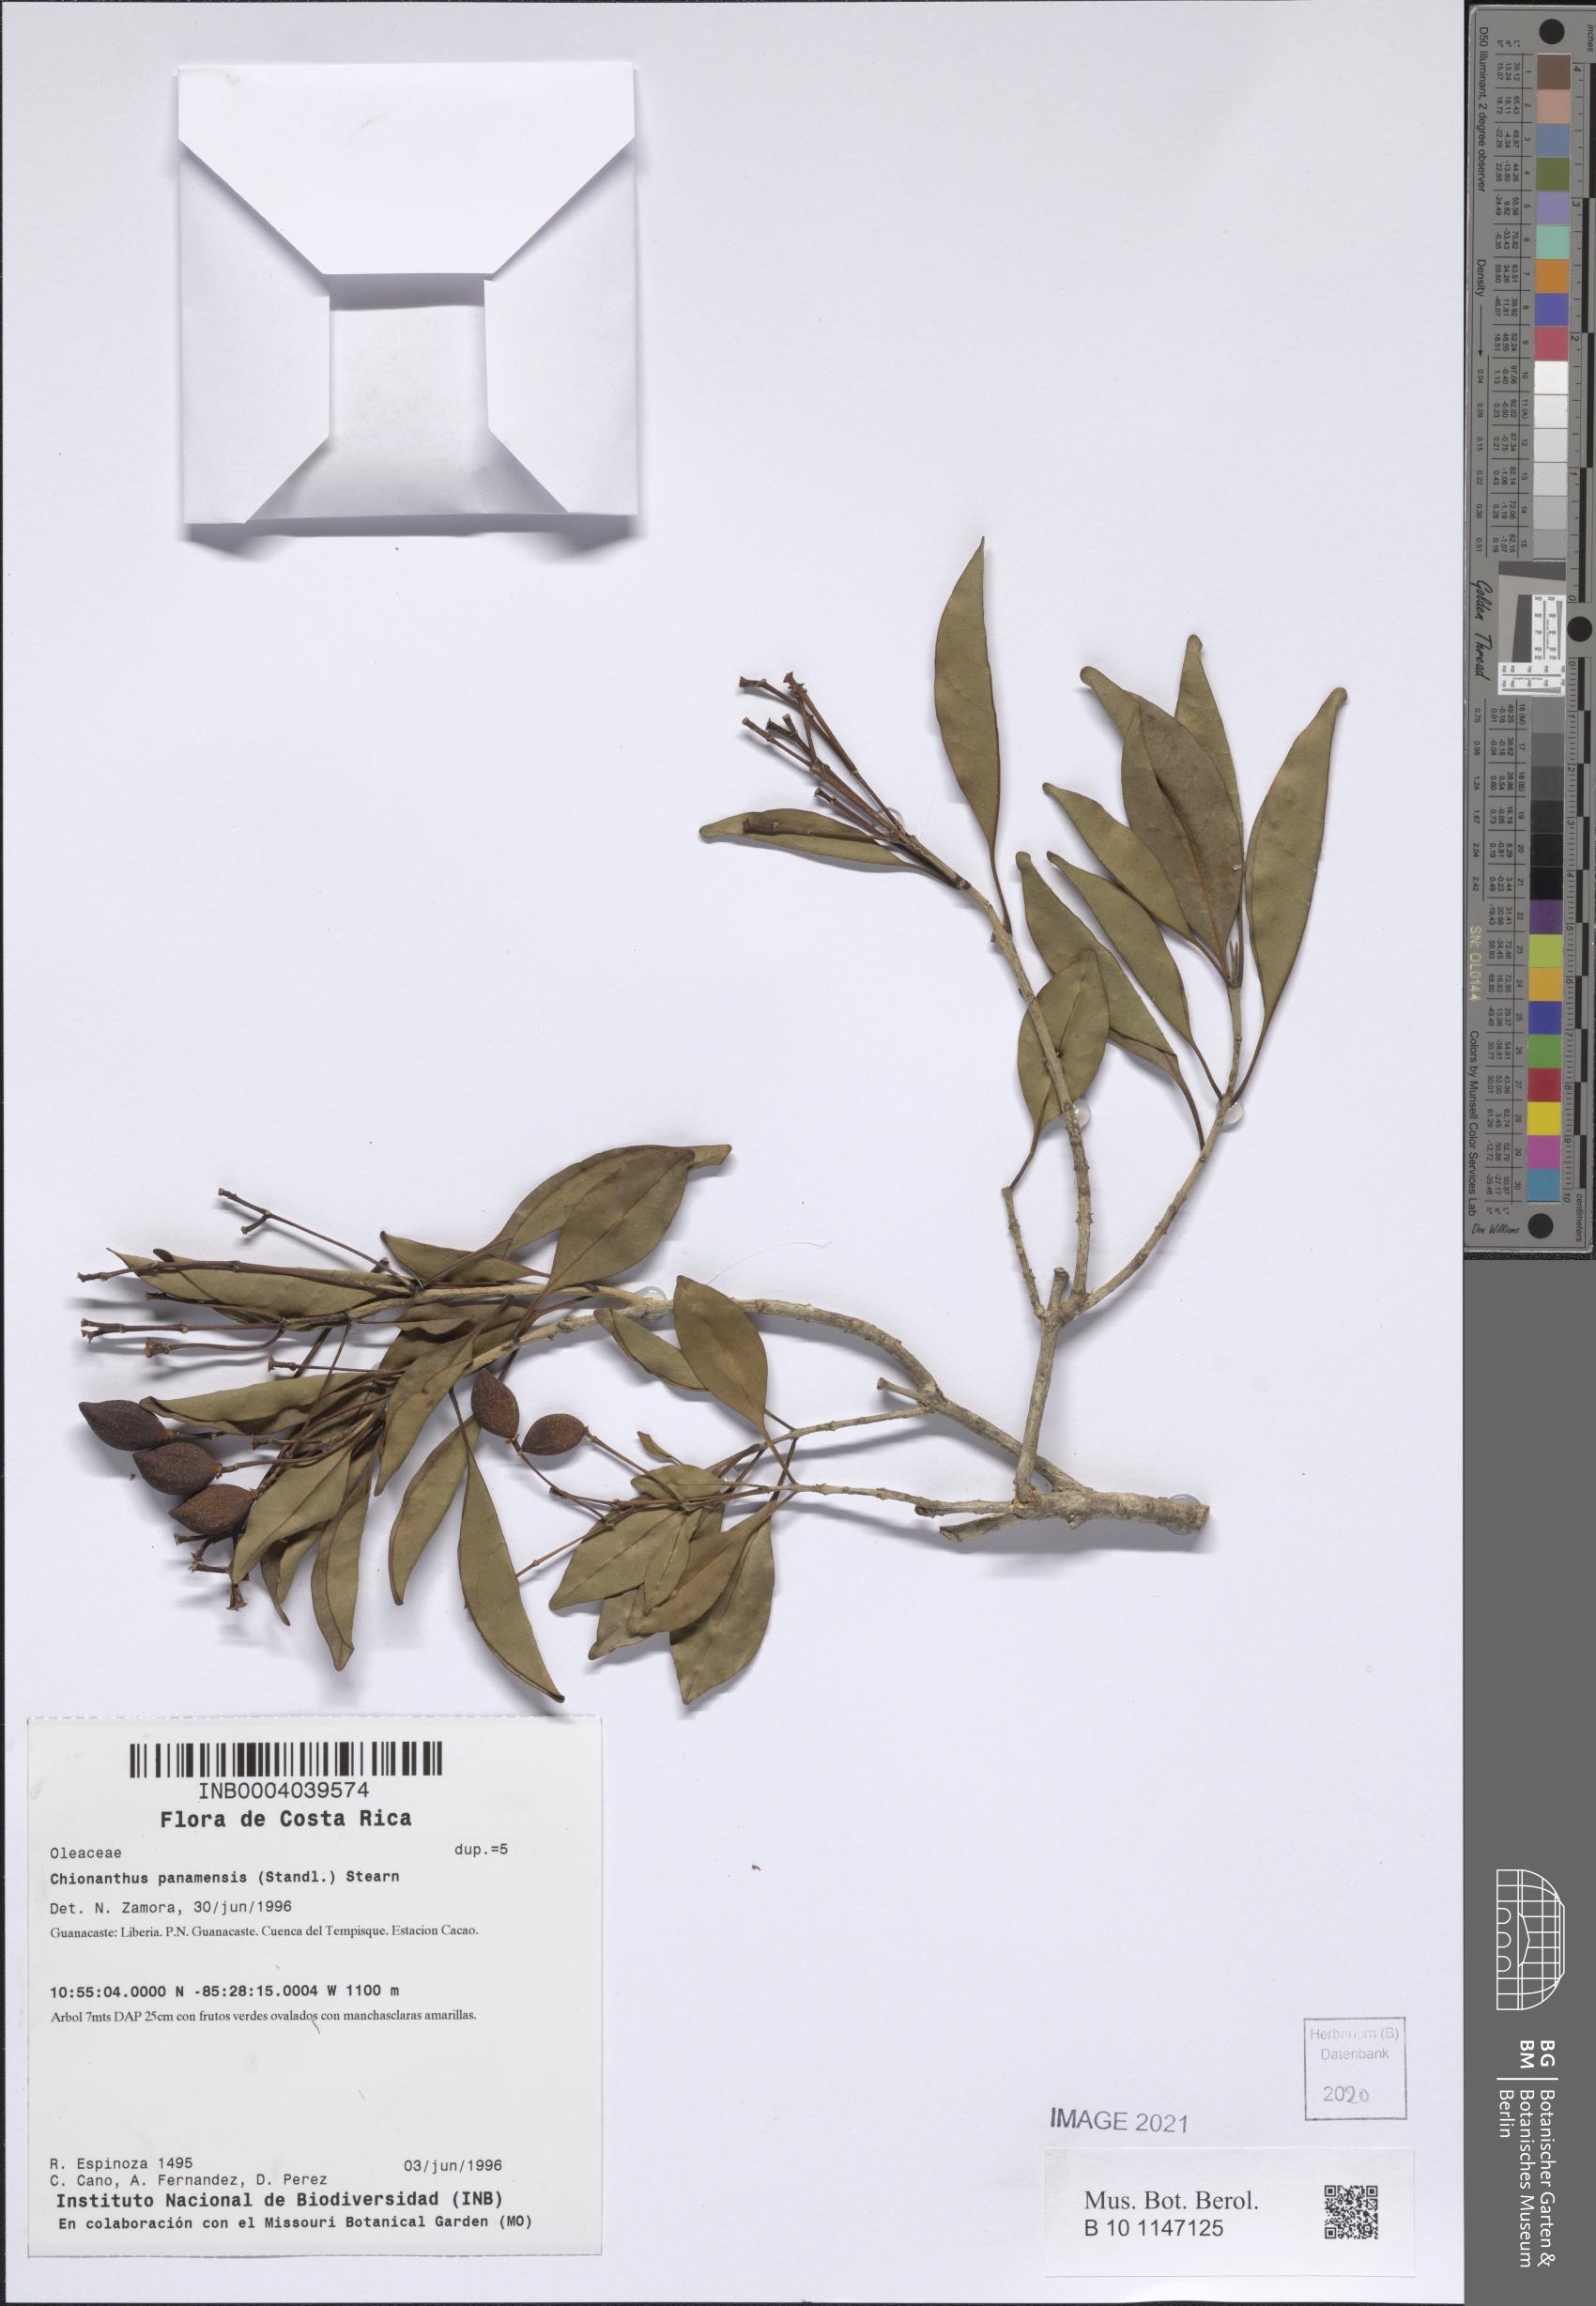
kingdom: Plantae
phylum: Tracheophyta
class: Magnoliopsida
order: Lamiales
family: Oleaceae
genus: Chionanthus
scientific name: Chionanthus panamensis
